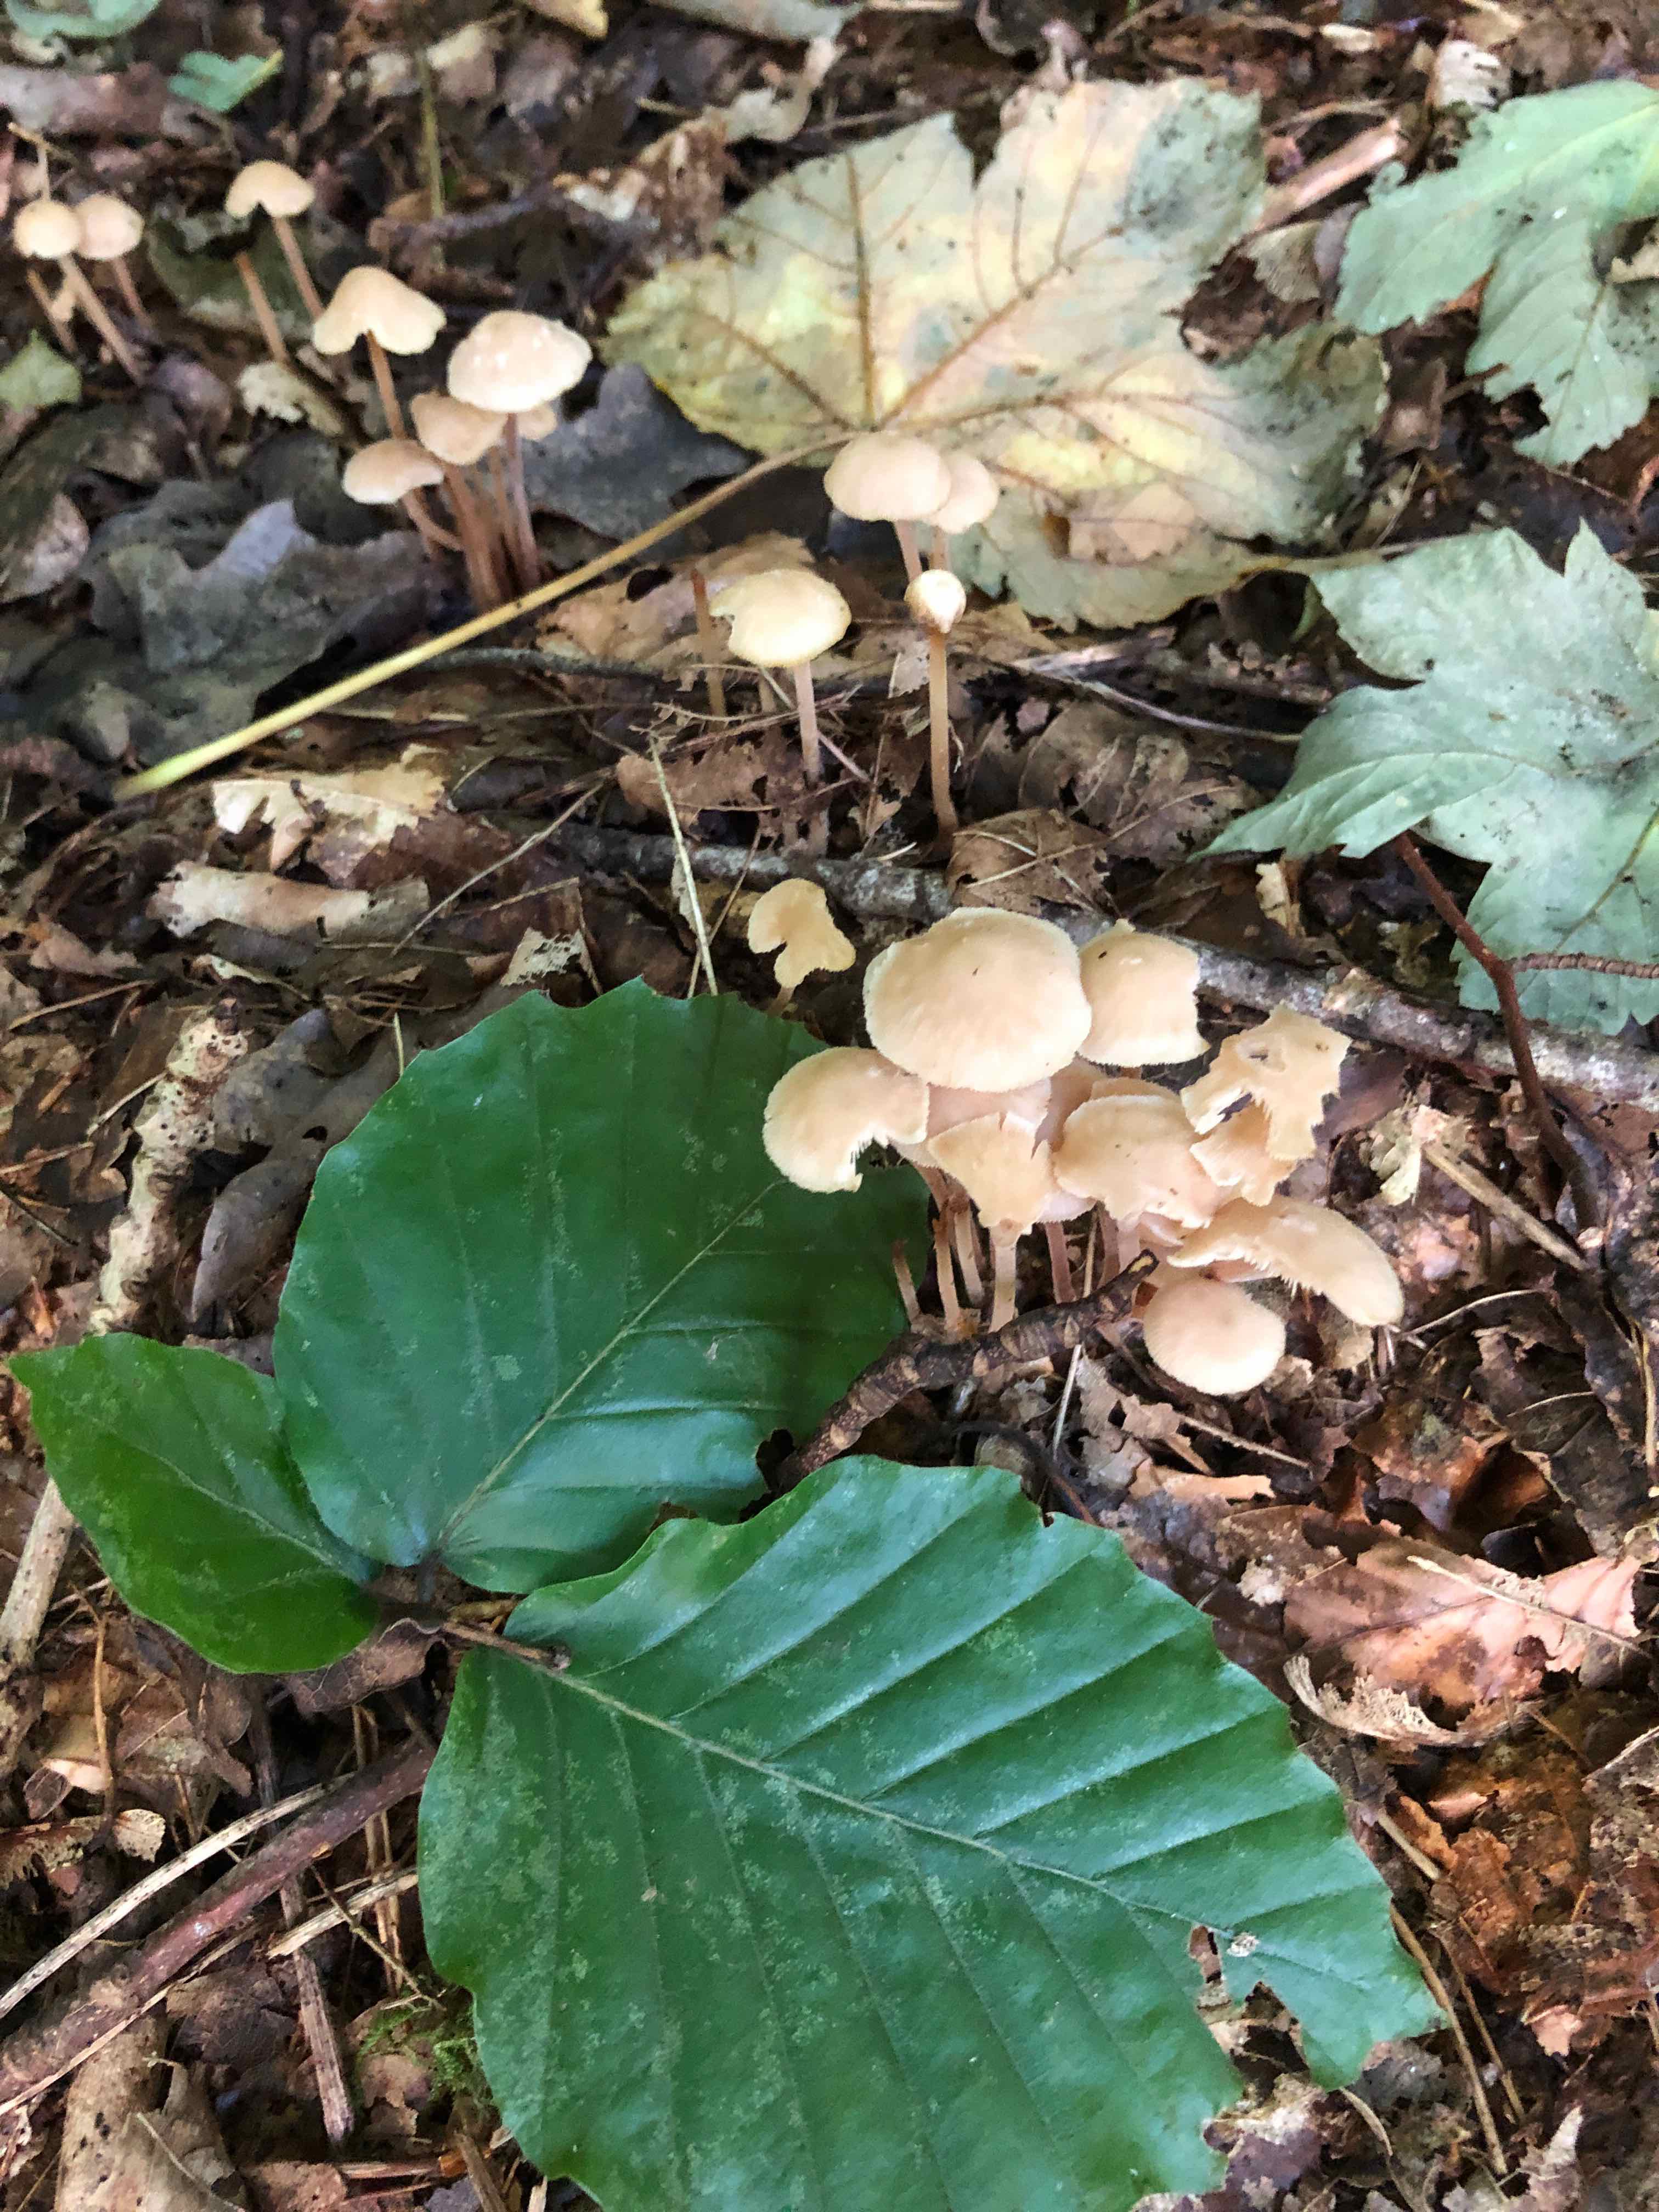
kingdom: Fungi
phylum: Basidiomycota
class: Agaricomycetes
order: Agaricales
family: Omphalotaceae
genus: Collybiopsis
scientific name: Collybiopsis confluens
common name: knippe-fladhat
